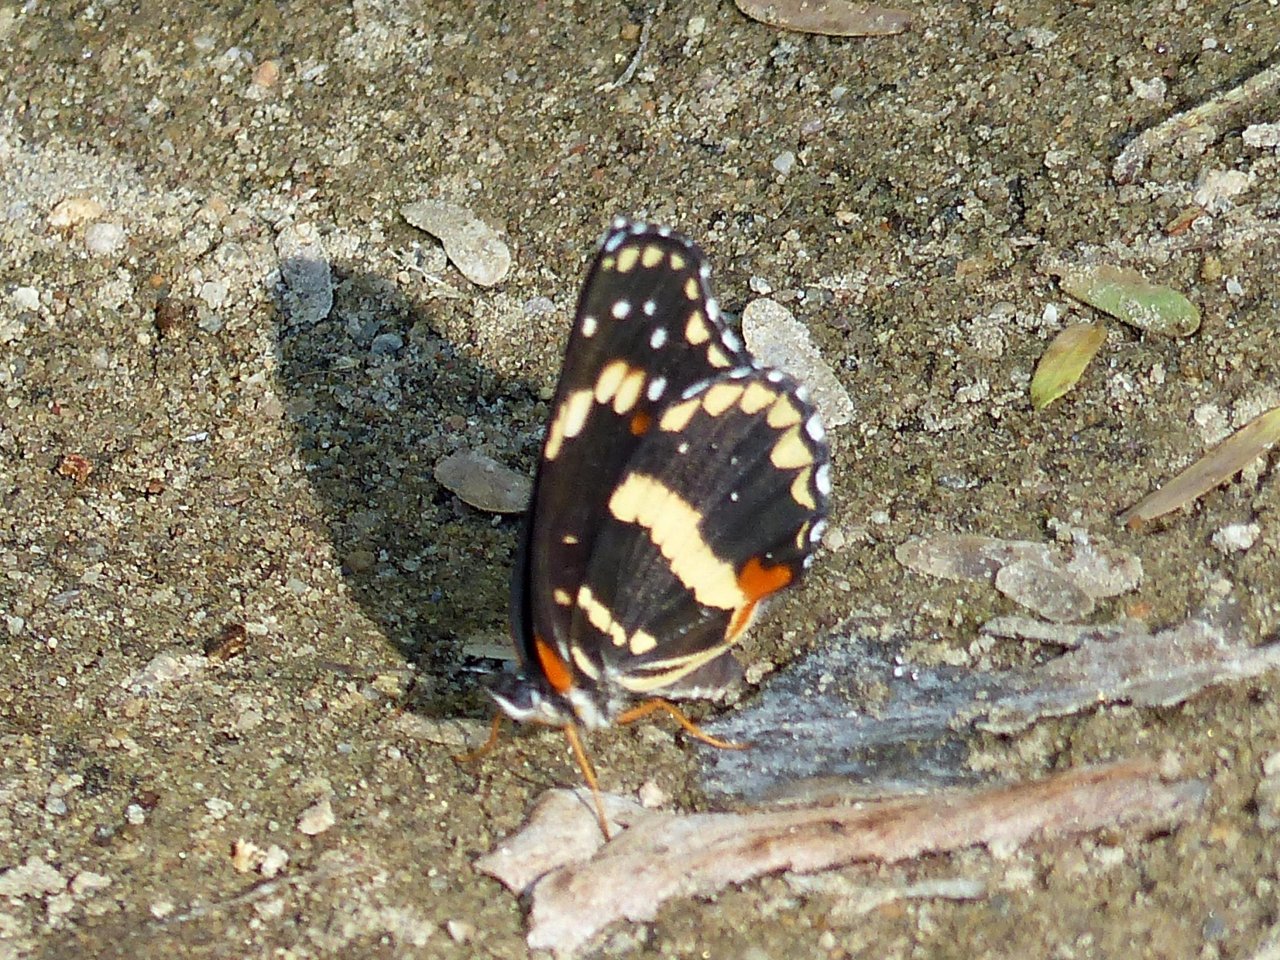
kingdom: Animalia
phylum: Arthropoda
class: Insecta
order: Lepidoptera
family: Nymphalidae
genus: Chlosyne
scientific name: Chlosyne lacinia
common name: Bordered Patch
